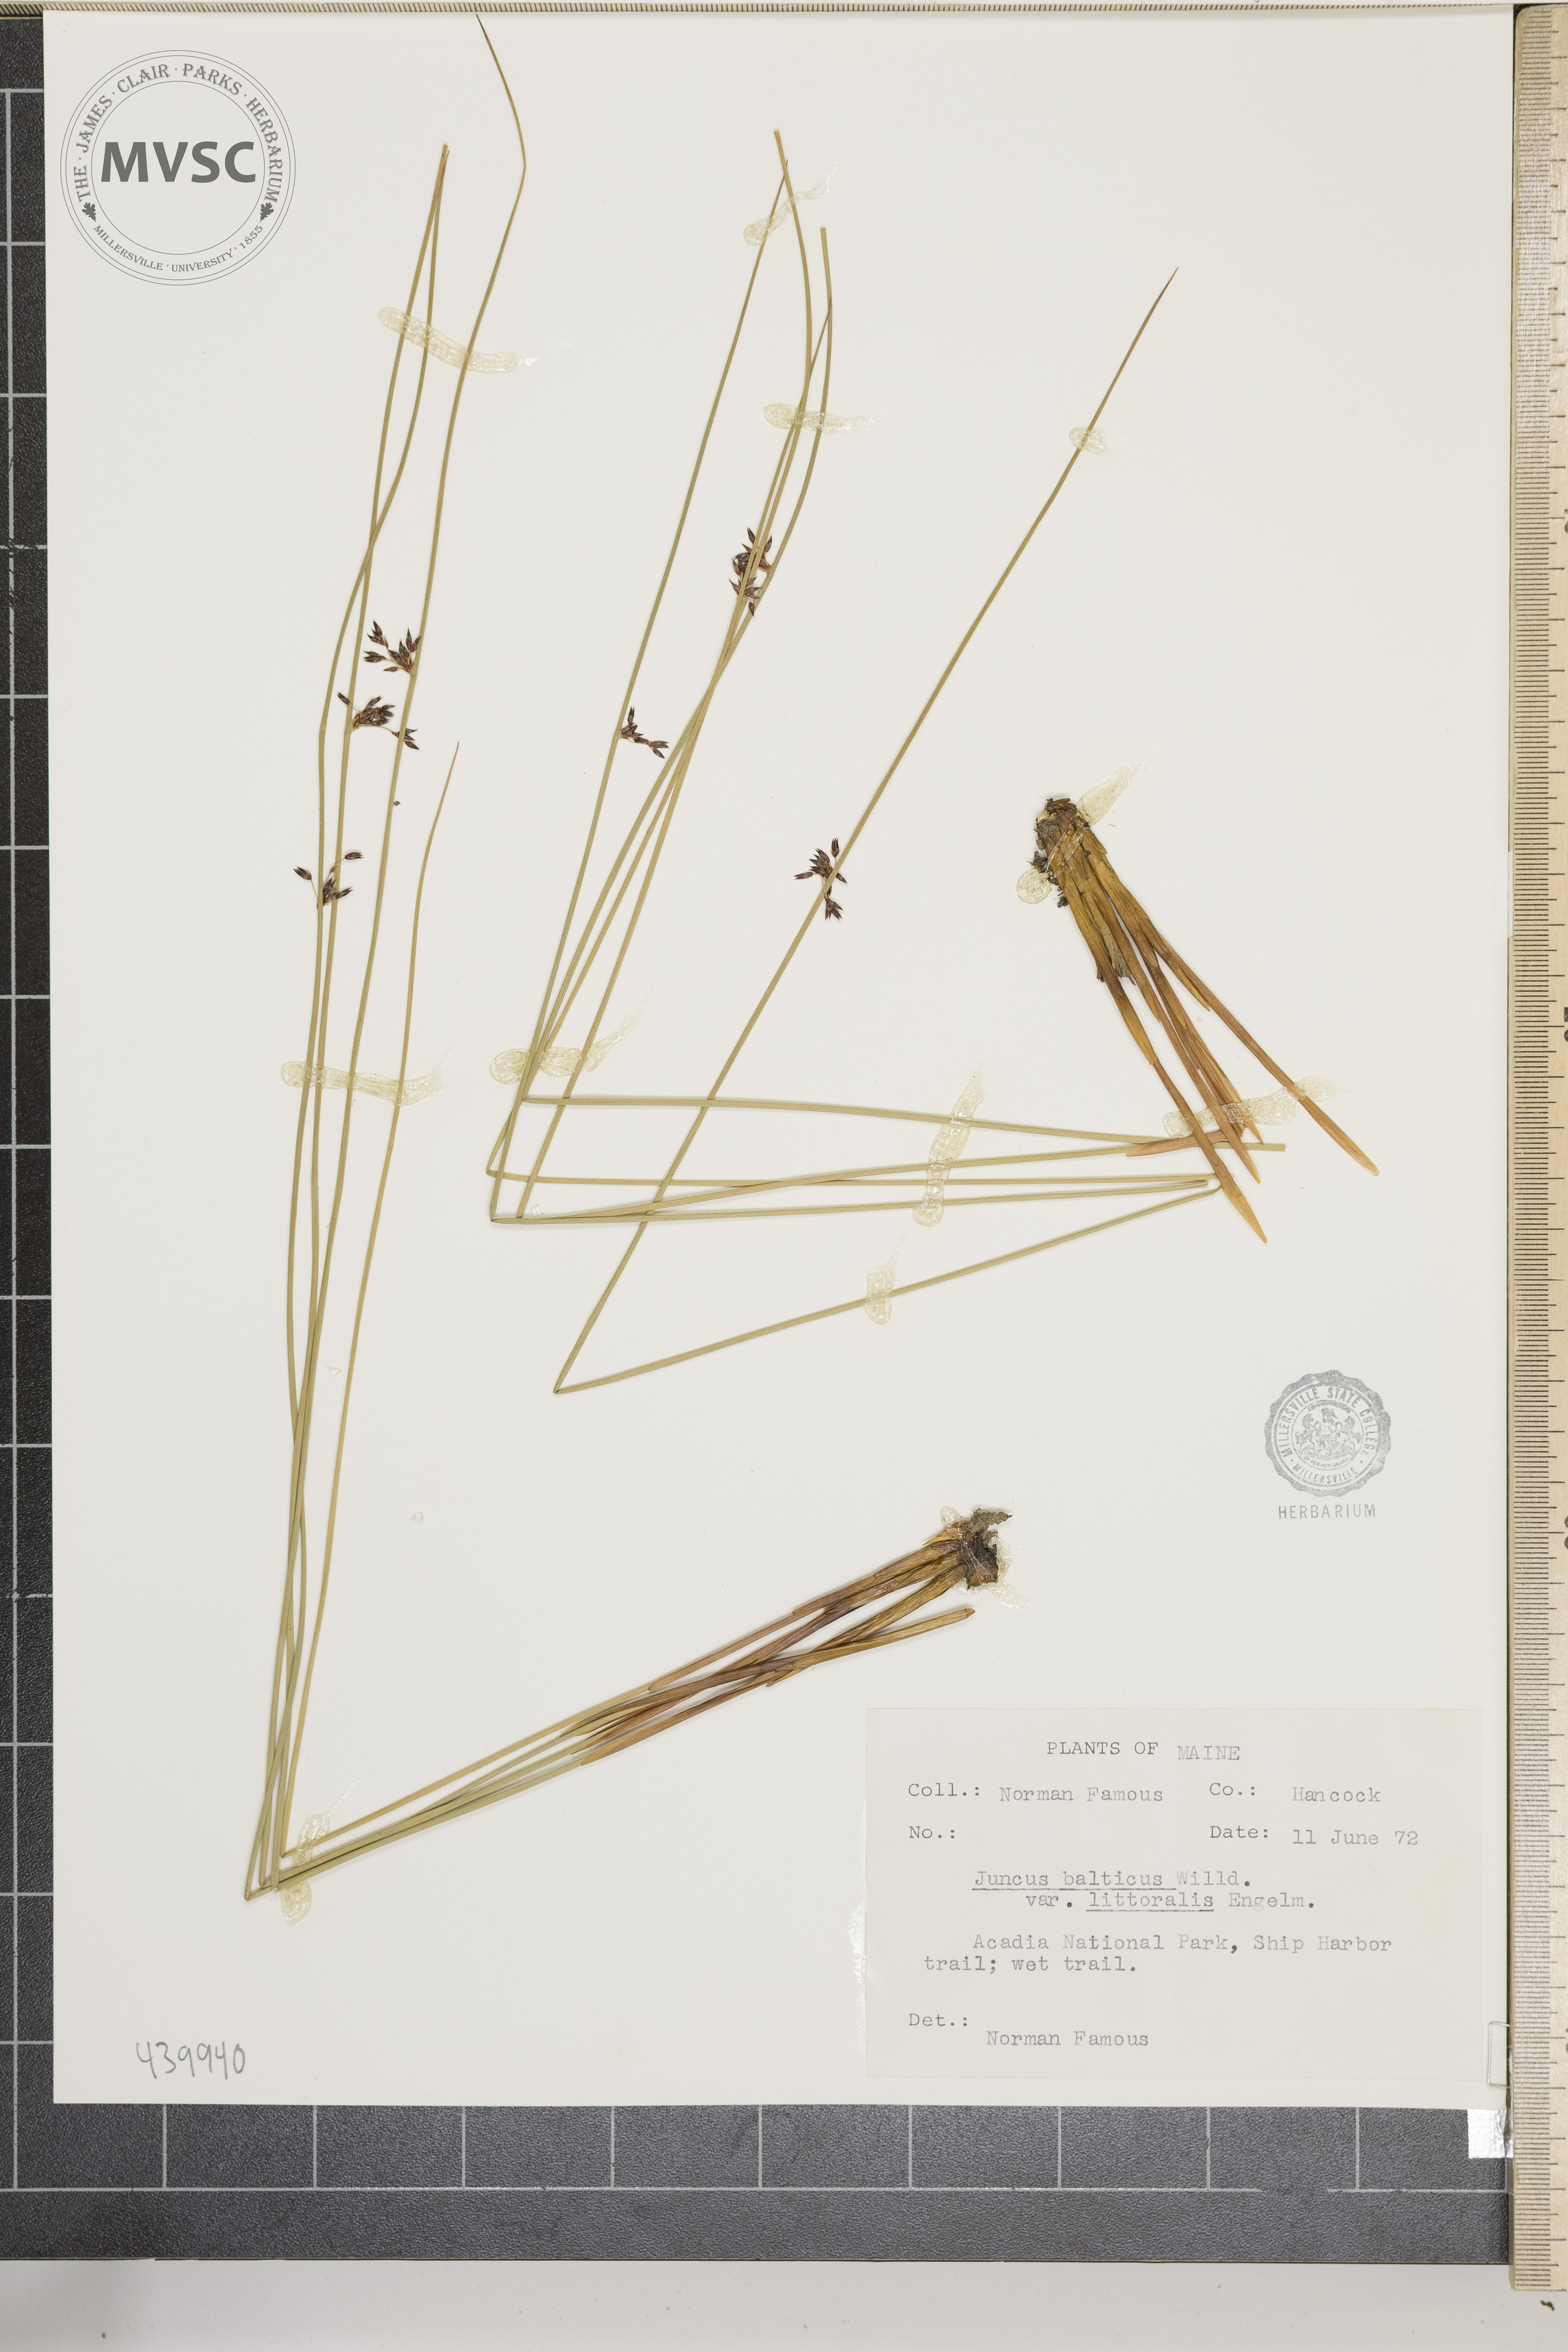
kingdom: Plantae
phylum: Tracheophyta
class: Liliopsida
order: Poales
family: Juncaceae
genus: Juncus
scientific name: Juncus balticus
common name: Baltic rush
